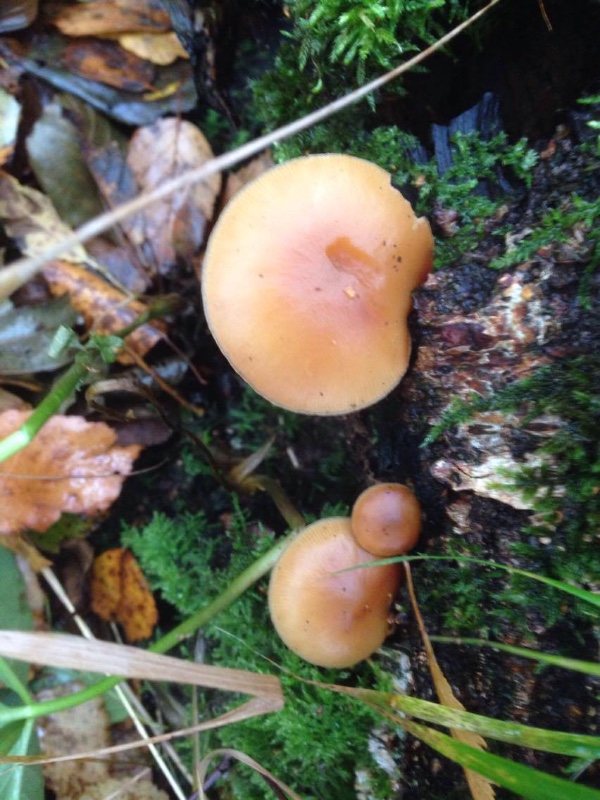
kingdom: Fungi
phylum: Basidiomycota
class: Agaricomycetes
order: Agaricales
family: Hymenogastraceae
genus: Galerina
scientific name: Galerina marginata
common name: randbæltet hjelmhat
